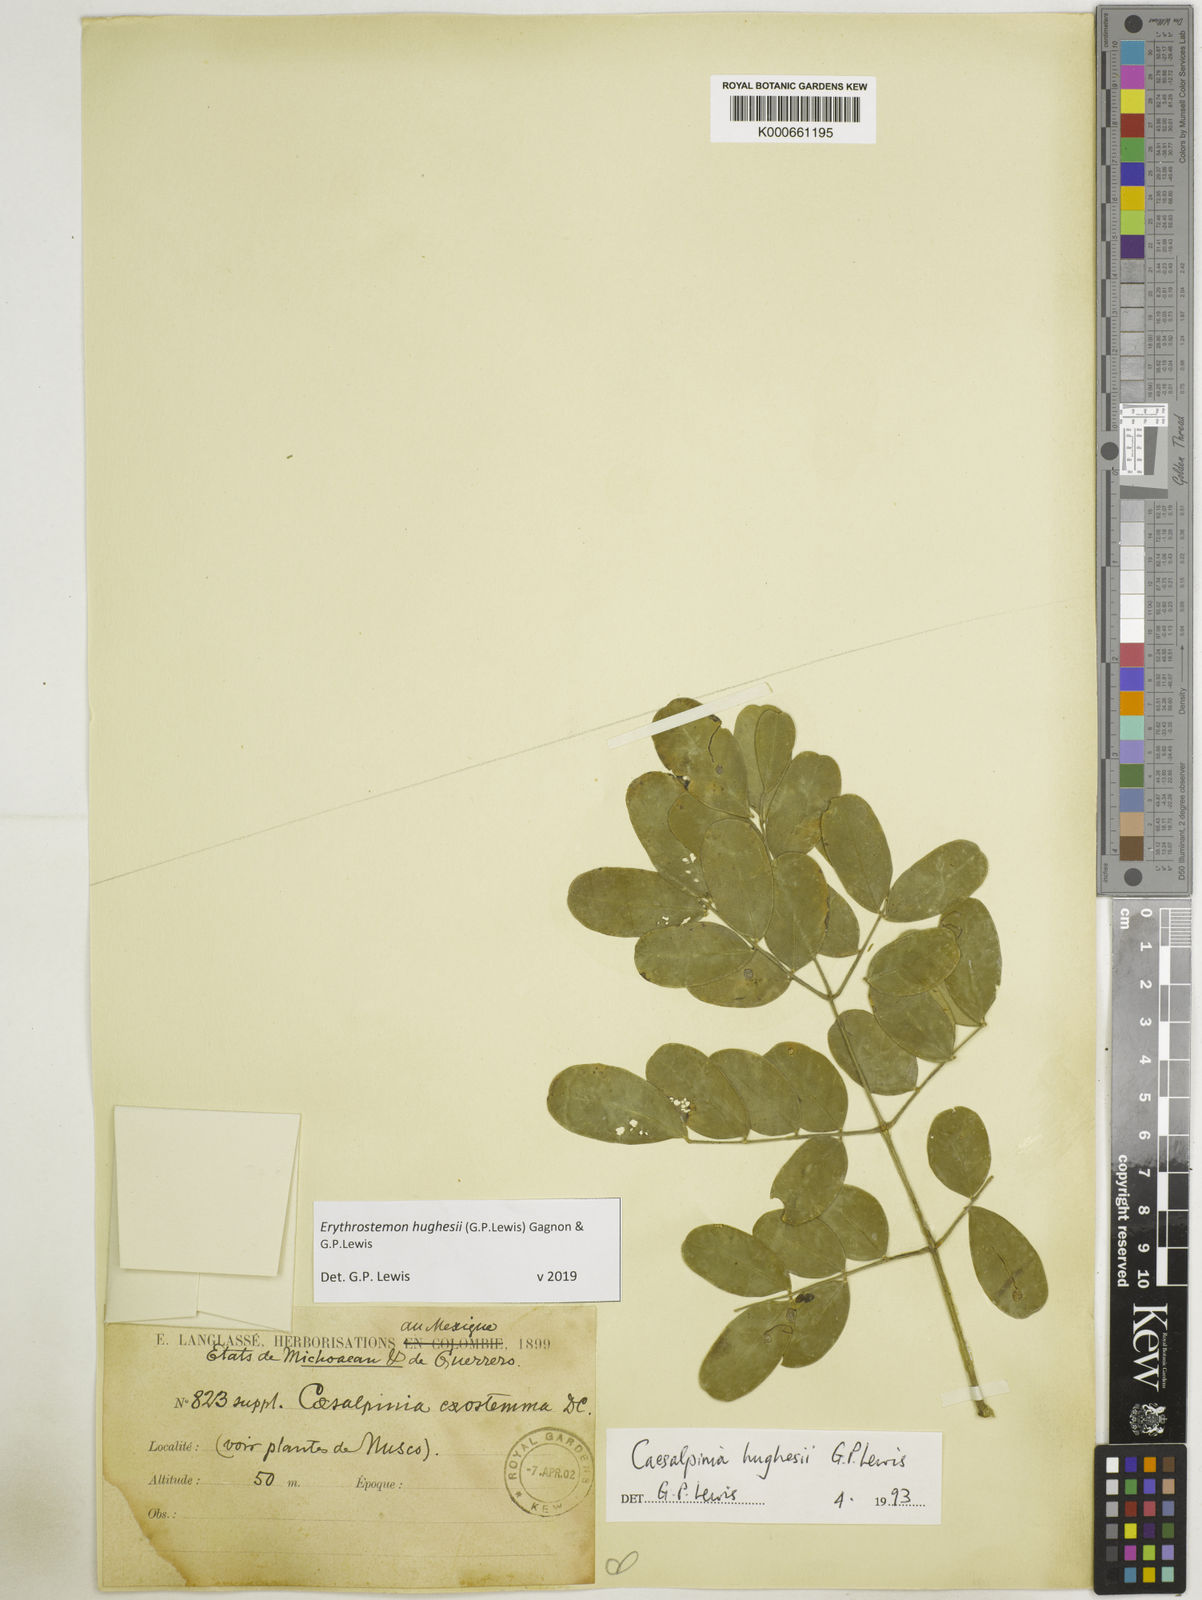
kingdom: Plantae
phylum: Tracheophyta
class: Magnoliopsida
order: Fabales
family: Fabaceae
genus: Erythrostemon
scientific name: Erythrostemon hughesii
